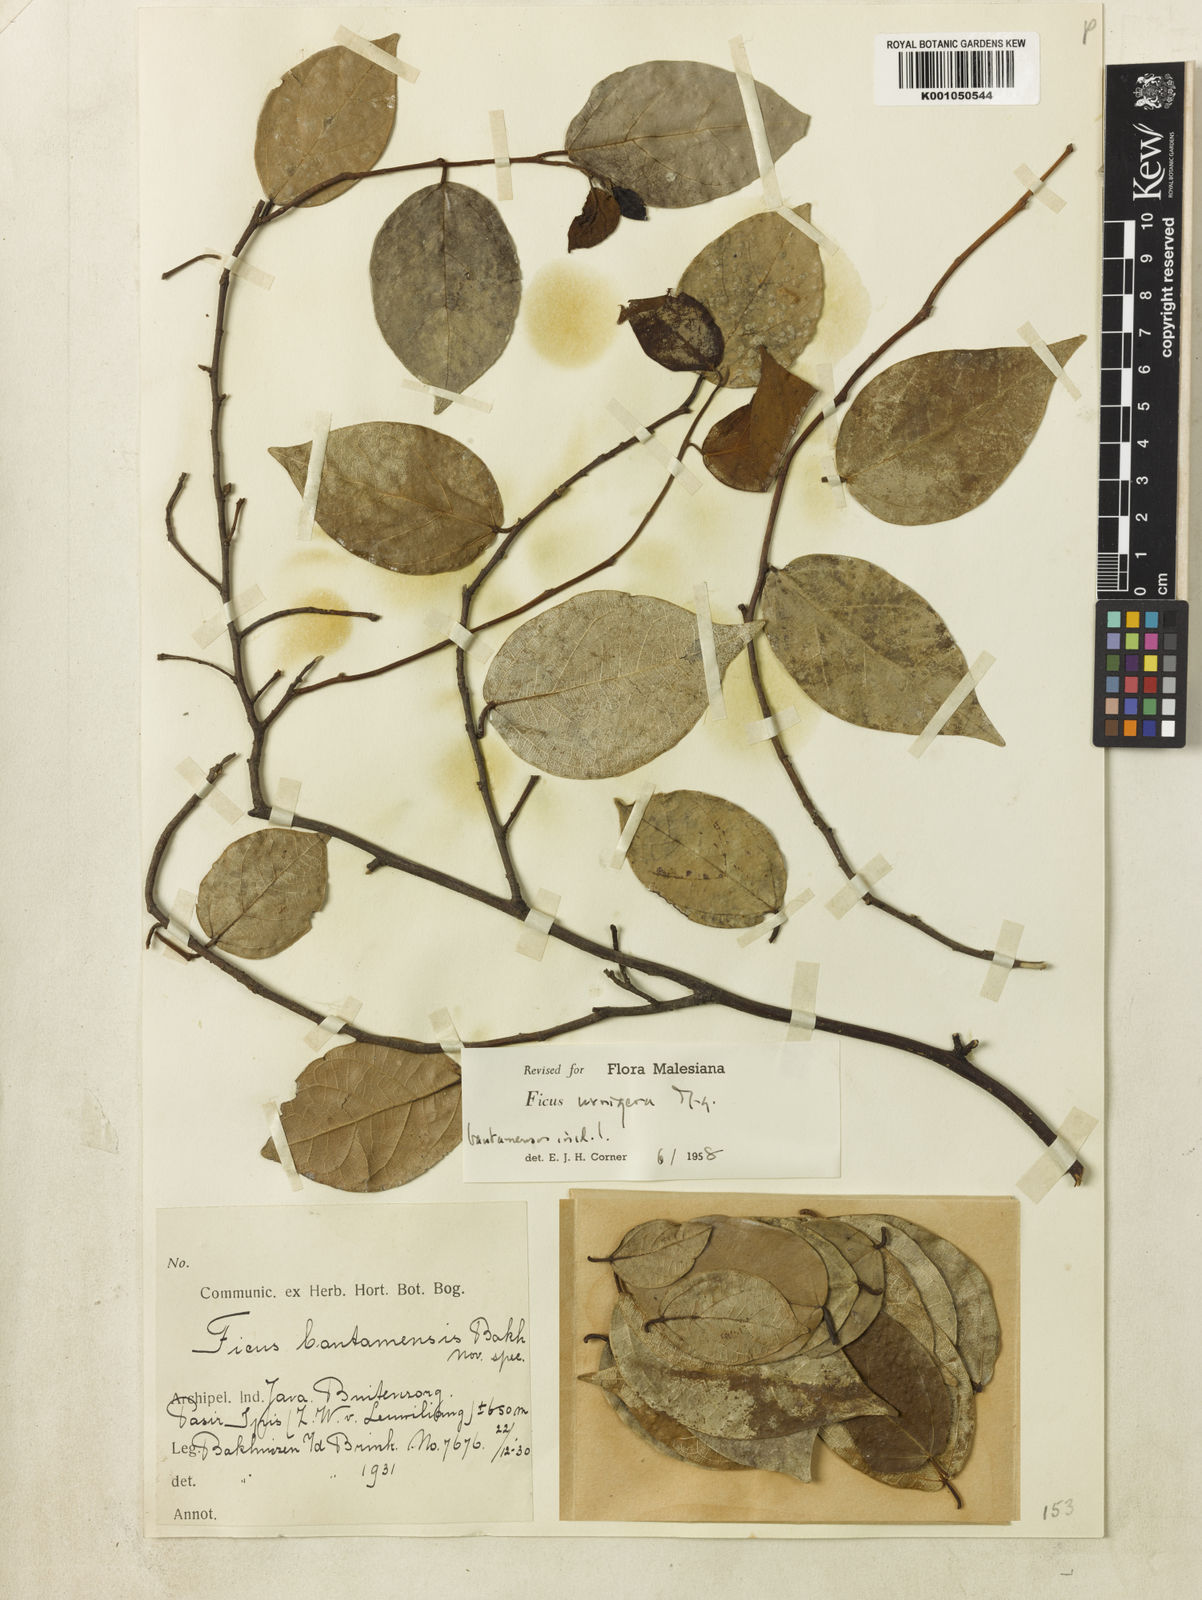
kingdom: Plantae
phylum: Tracheophyta
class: Magnoliopsida
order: Rosales
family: Moraceae
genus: Ficus
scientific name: Ficus urnigera
